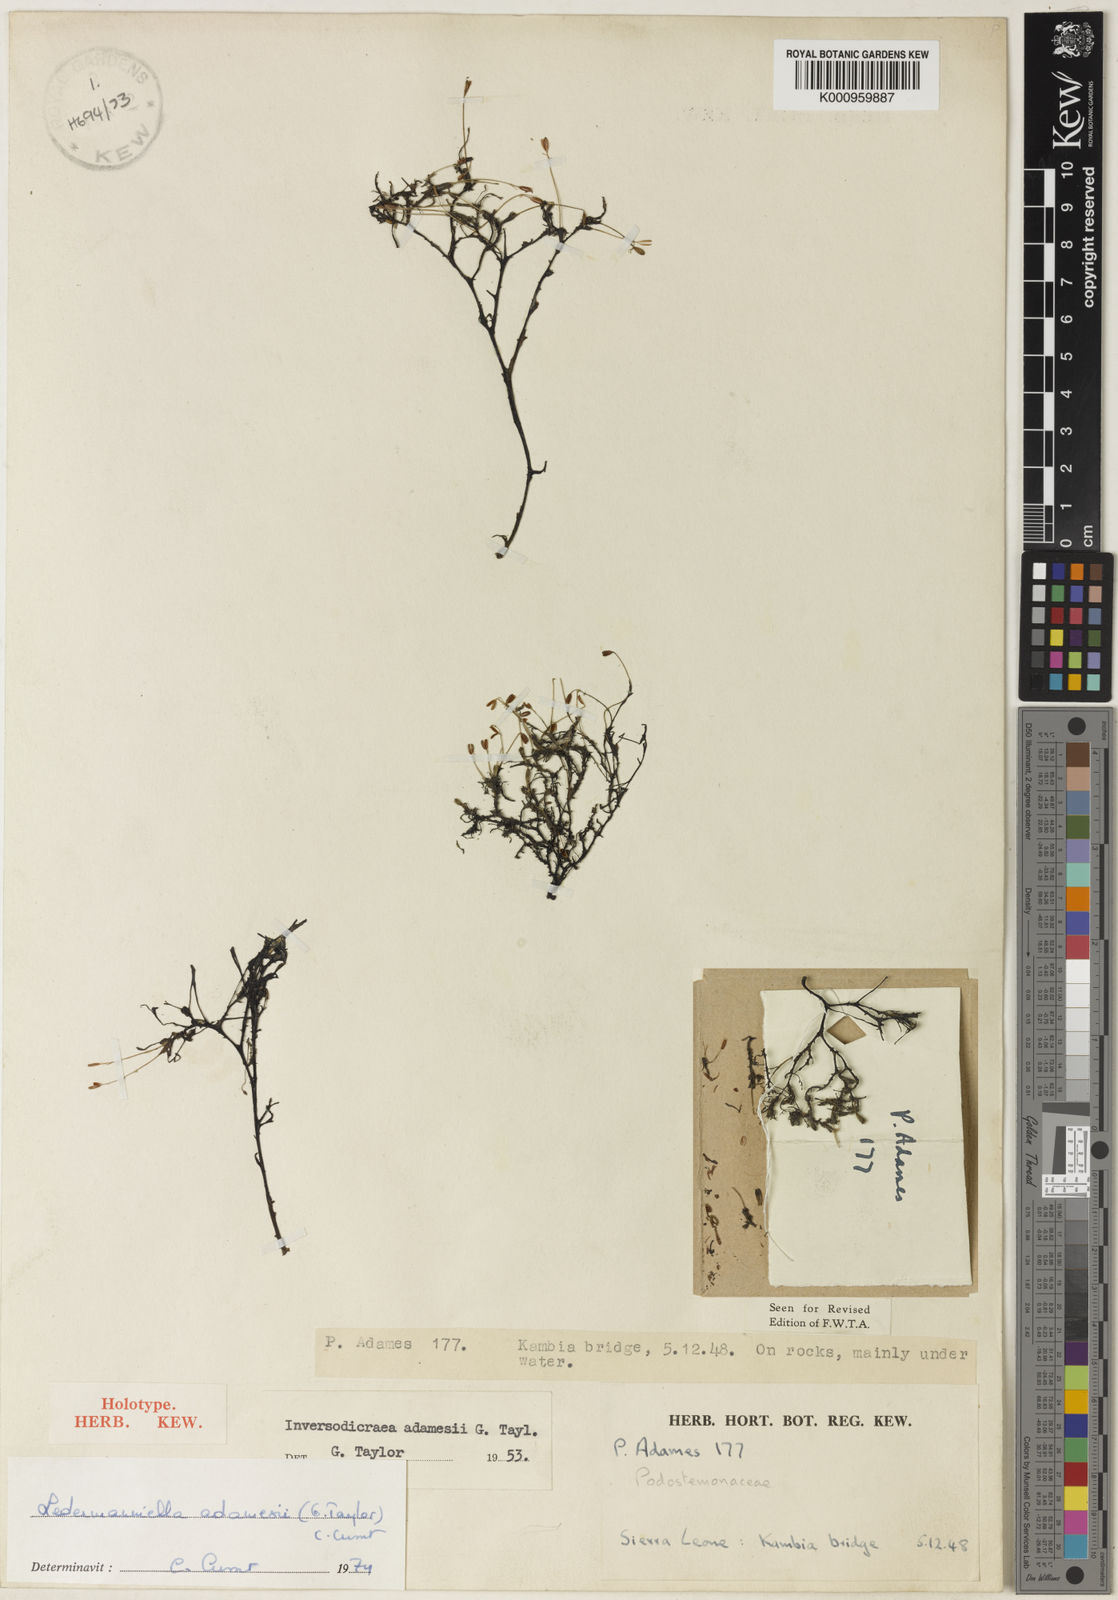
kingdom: Plantae
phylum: Tracheophyta
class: Magnoliopsida
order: Malpighiales
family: Podostemaceae
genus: Inversodicraea
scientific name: Inversodicraea adamesii
